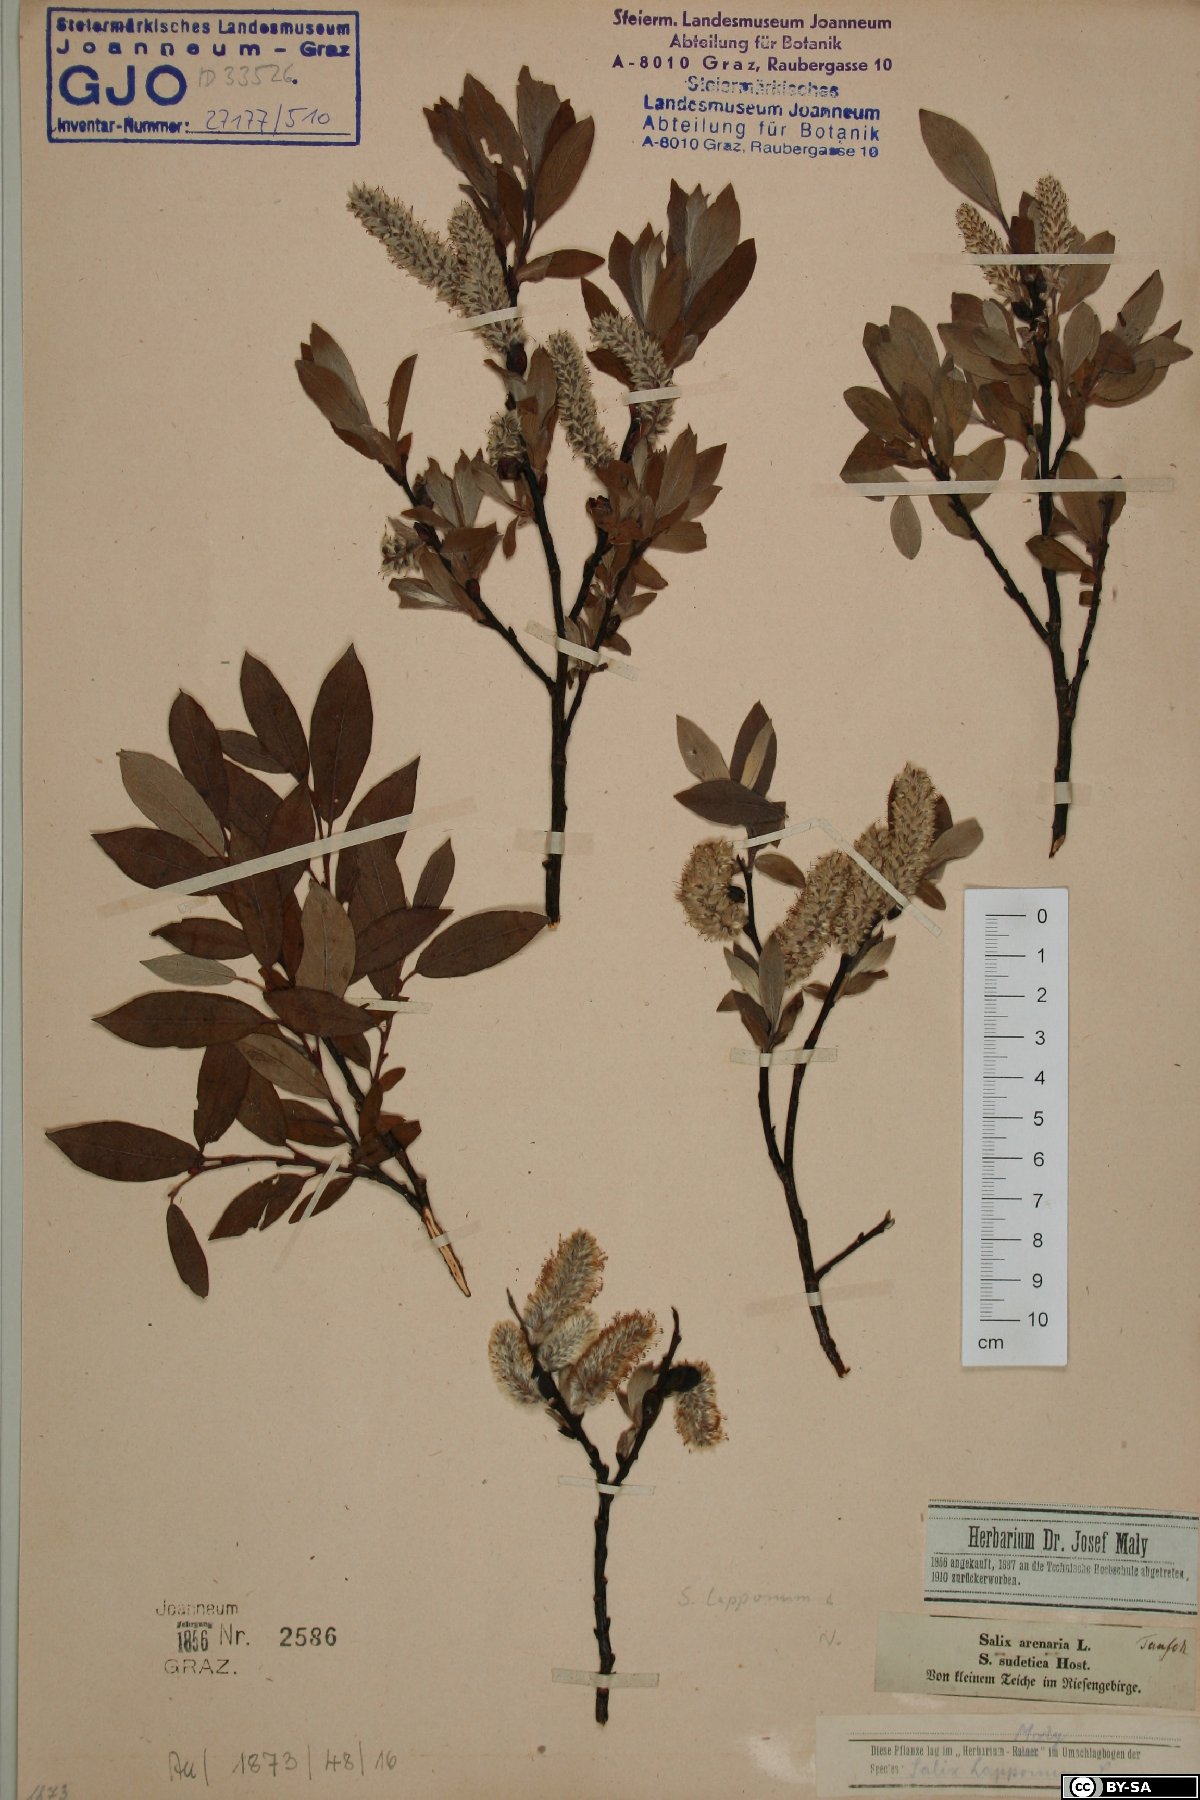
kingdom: Plantae
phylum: Tracheophyta
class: Magnoliopsida
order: Malpighiales
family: Salicaceae
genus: Salix
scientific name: Salix lapponum
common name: Downy willow
